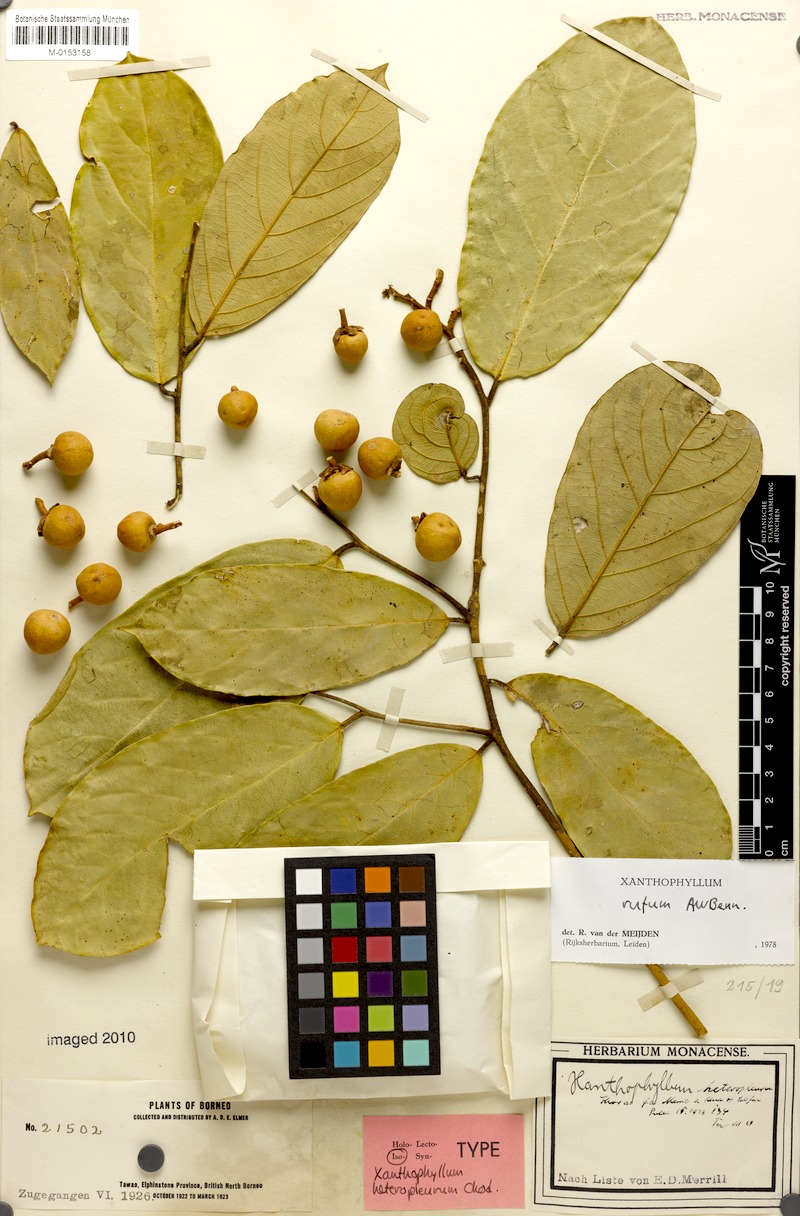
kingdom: Plantae
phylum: Tracheophyta
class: Magnoliopsida
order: Fabales
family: Polygalaceae
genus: Xanthophyllum
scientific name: Xanthophyllum rufum
